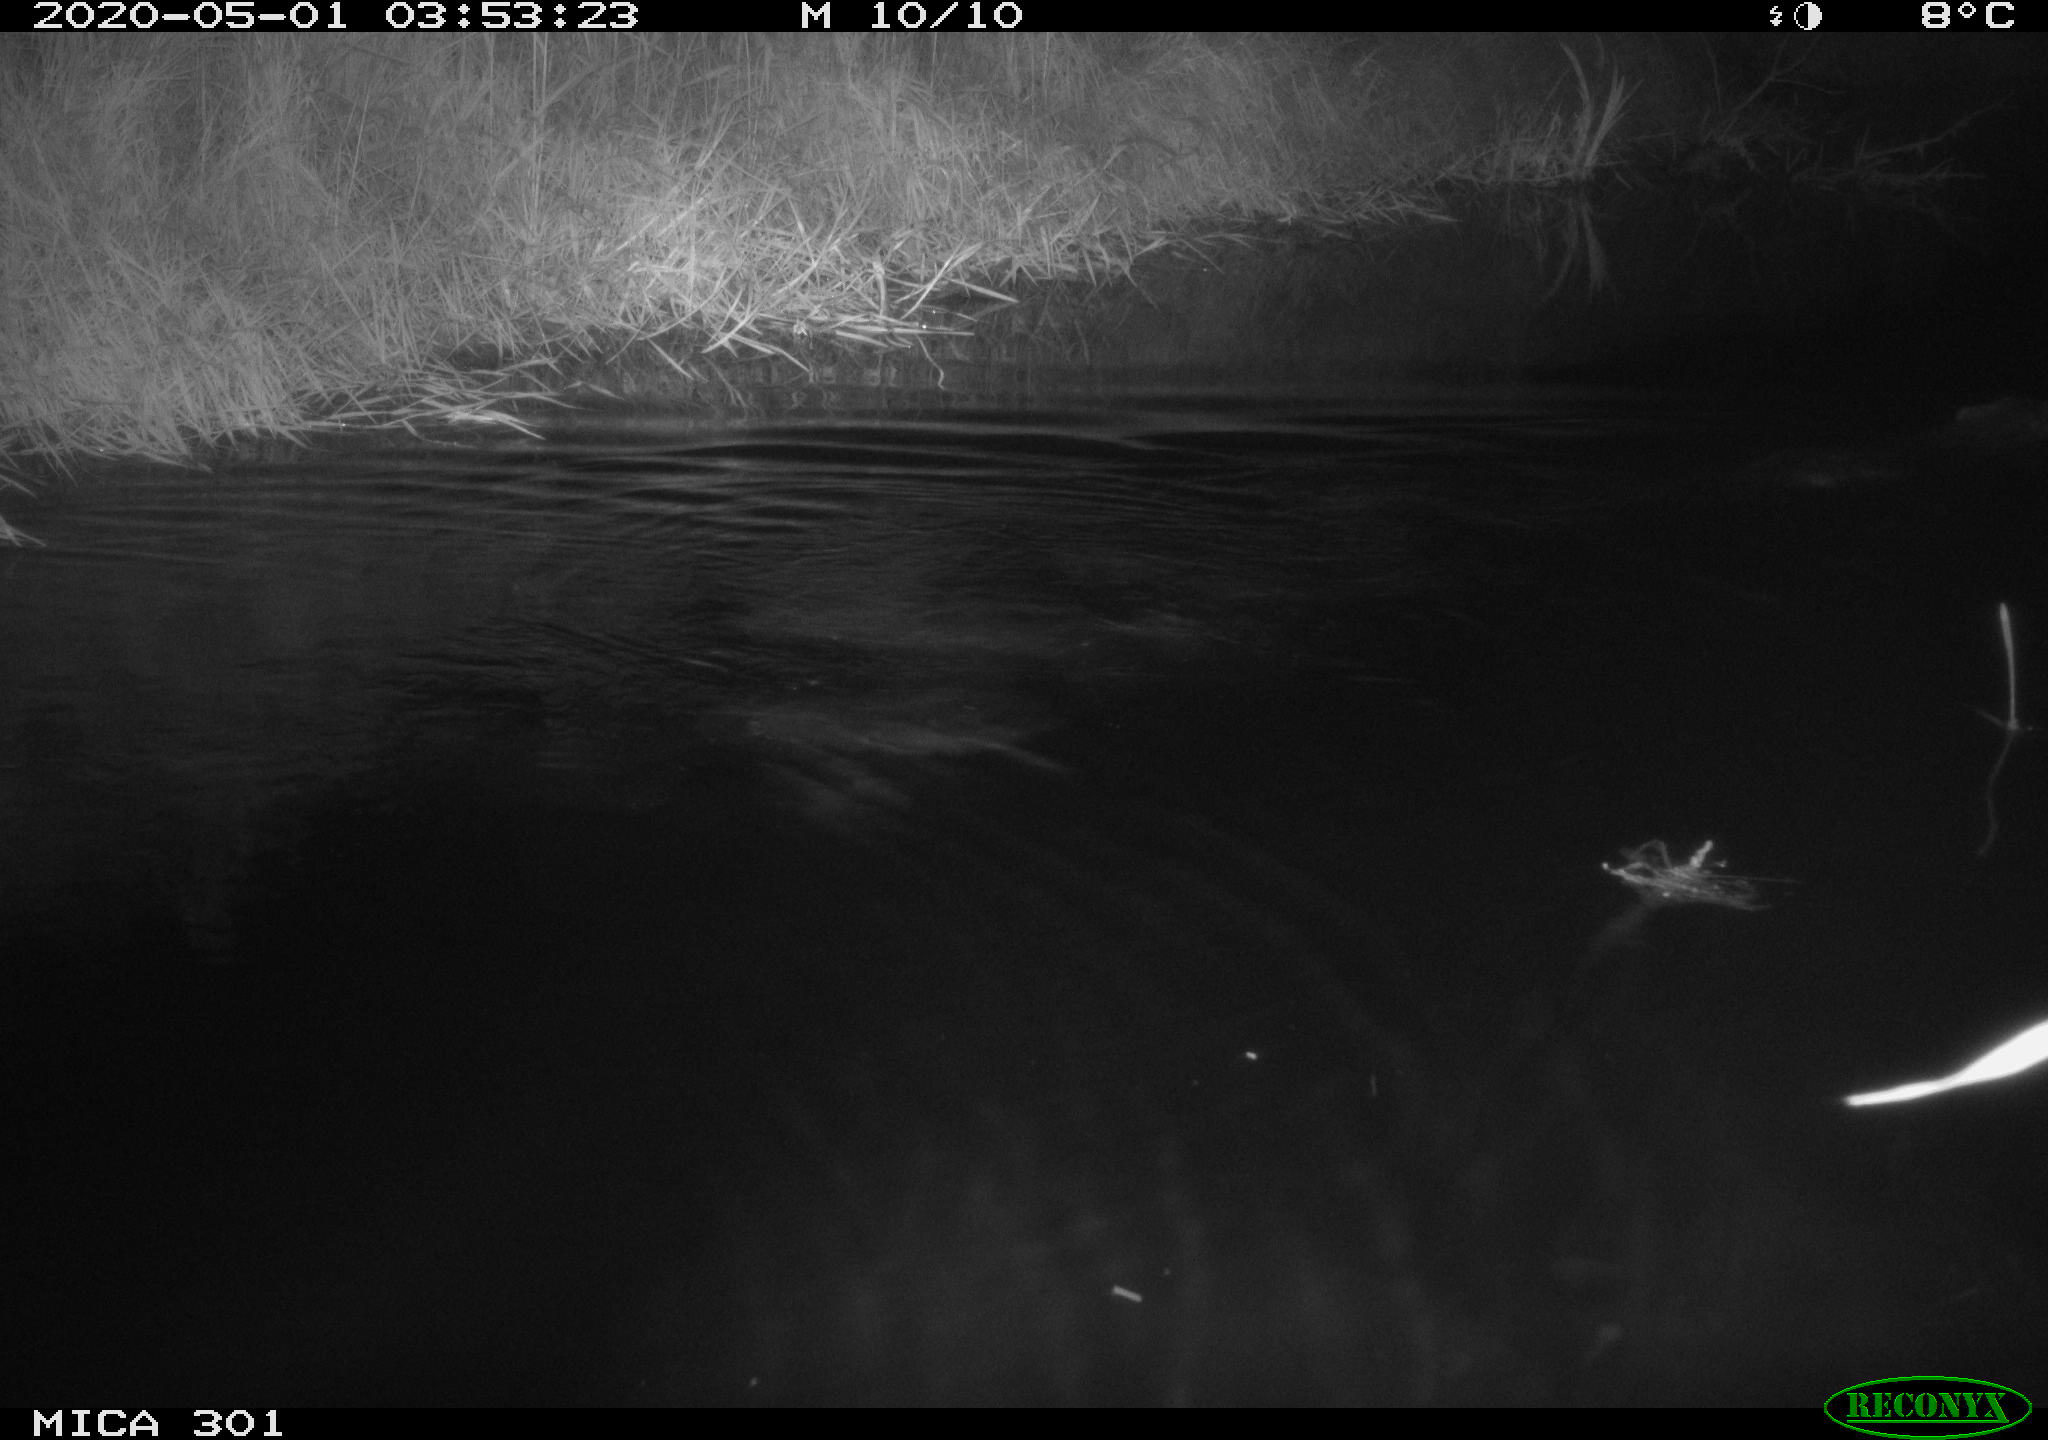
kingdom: Animalia
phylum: Chordata
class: Mammalia
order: Rodentia
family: Castoridae
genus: Castor
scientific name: Castor fiber
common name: Eurasian beaver
